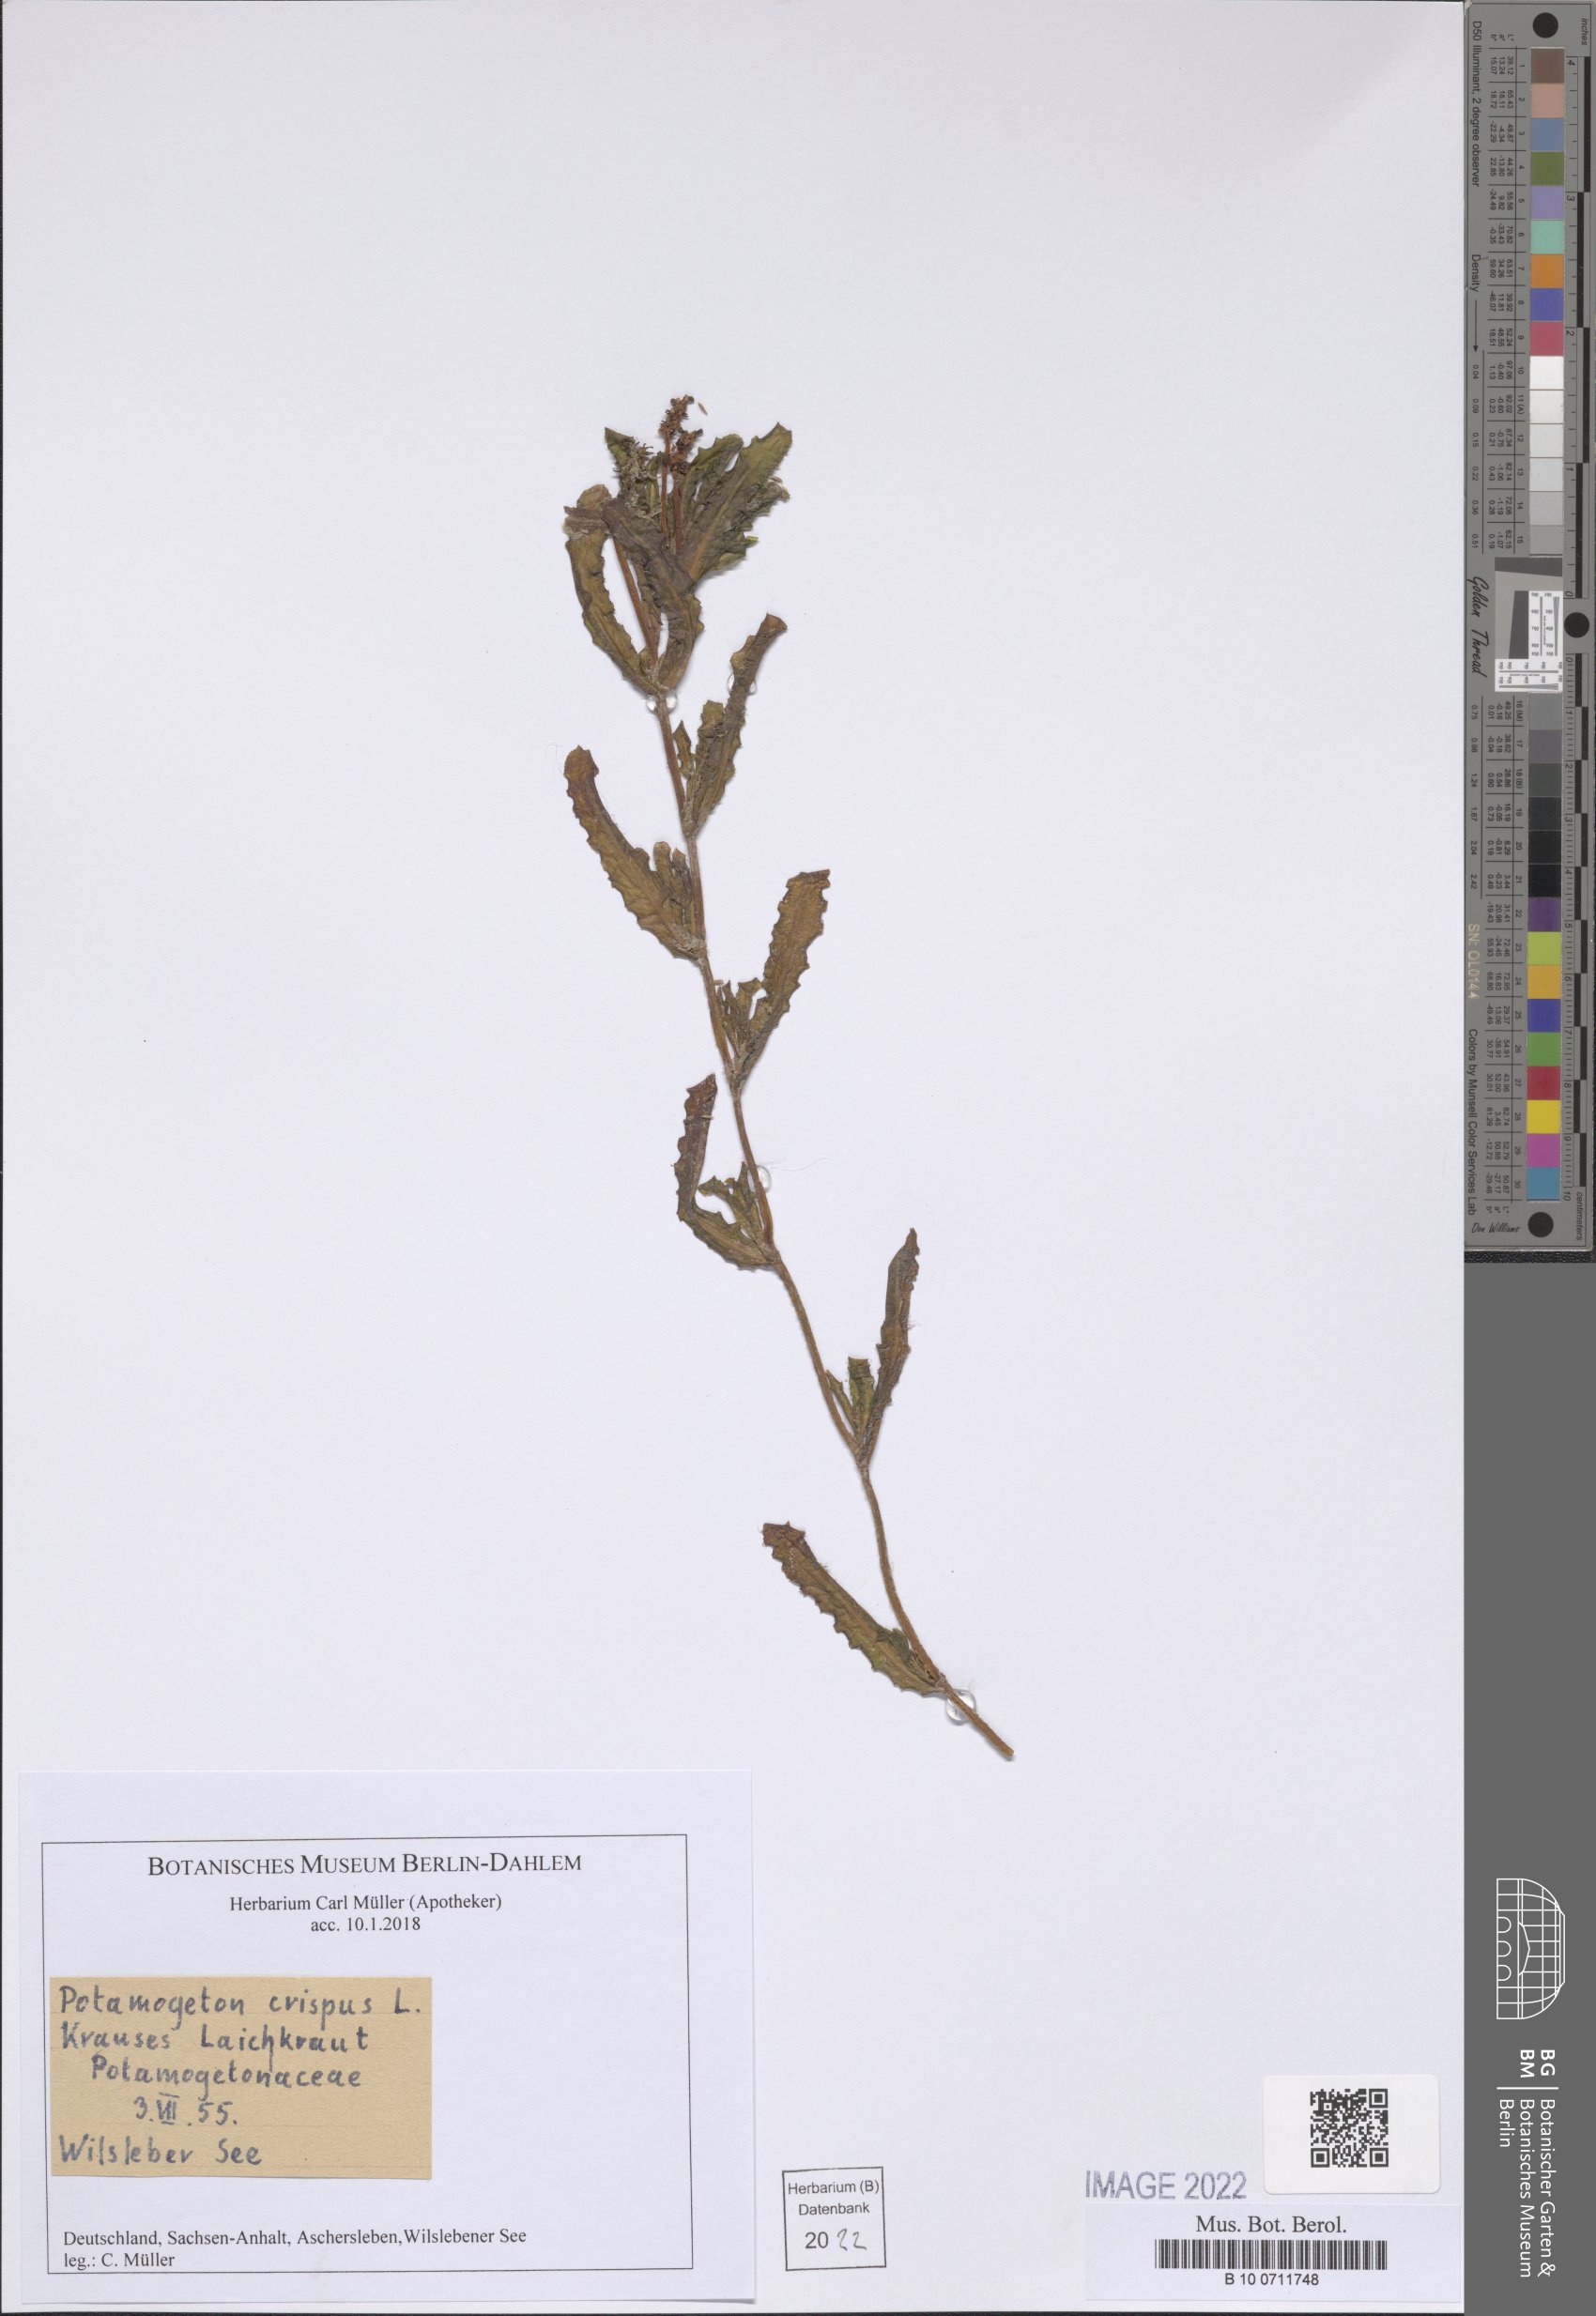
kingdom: Plantae
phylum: Tracheophyta
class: Liliopsida
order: Alismatales
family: Potamogetonaceae
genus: Potamogeton
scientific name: Potamogeton crispus
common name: Curled pondweed
